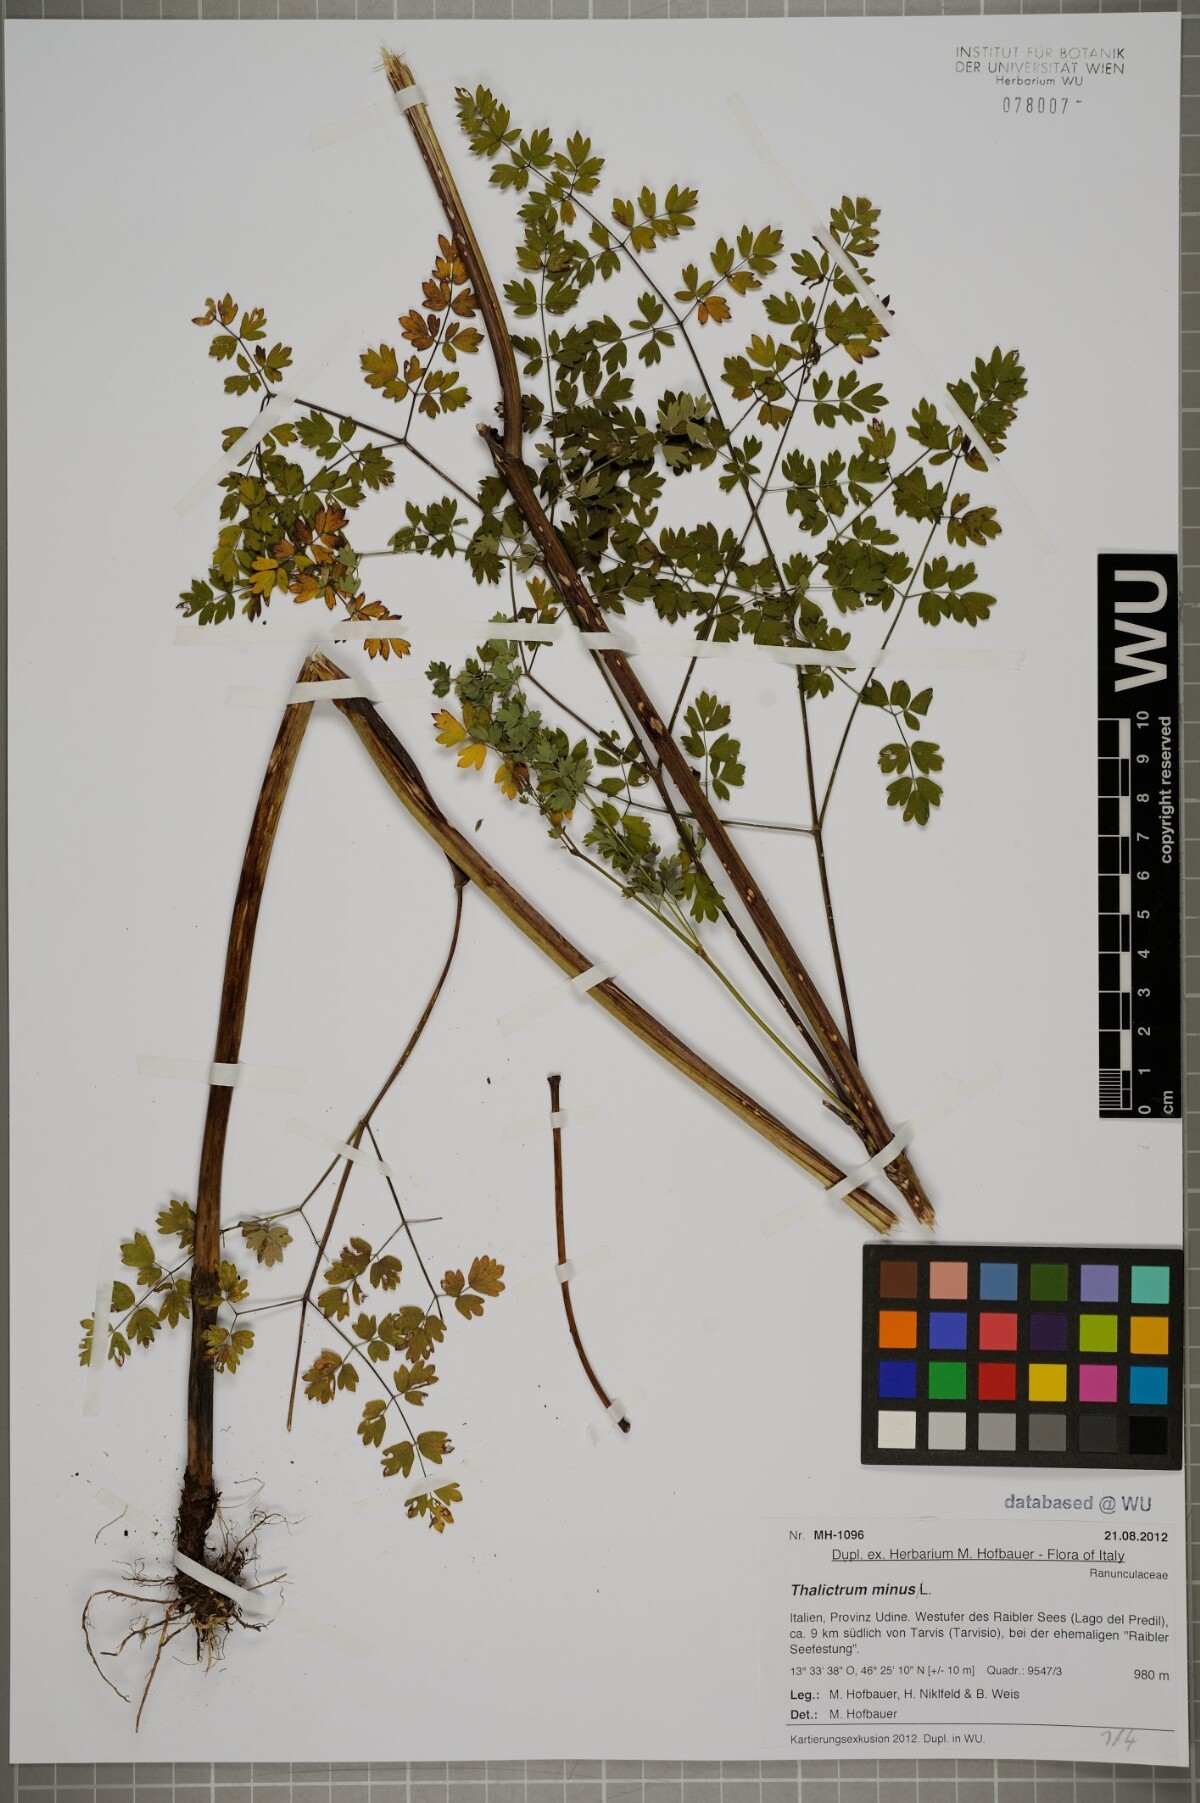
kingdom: Plantae
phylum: Tracheophyta
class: Magnoliopsida
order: Ranunculales
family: Ranunculaceae
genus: Thalictrum
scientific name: Thalictrum minus
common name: Lesser meadow-rue
